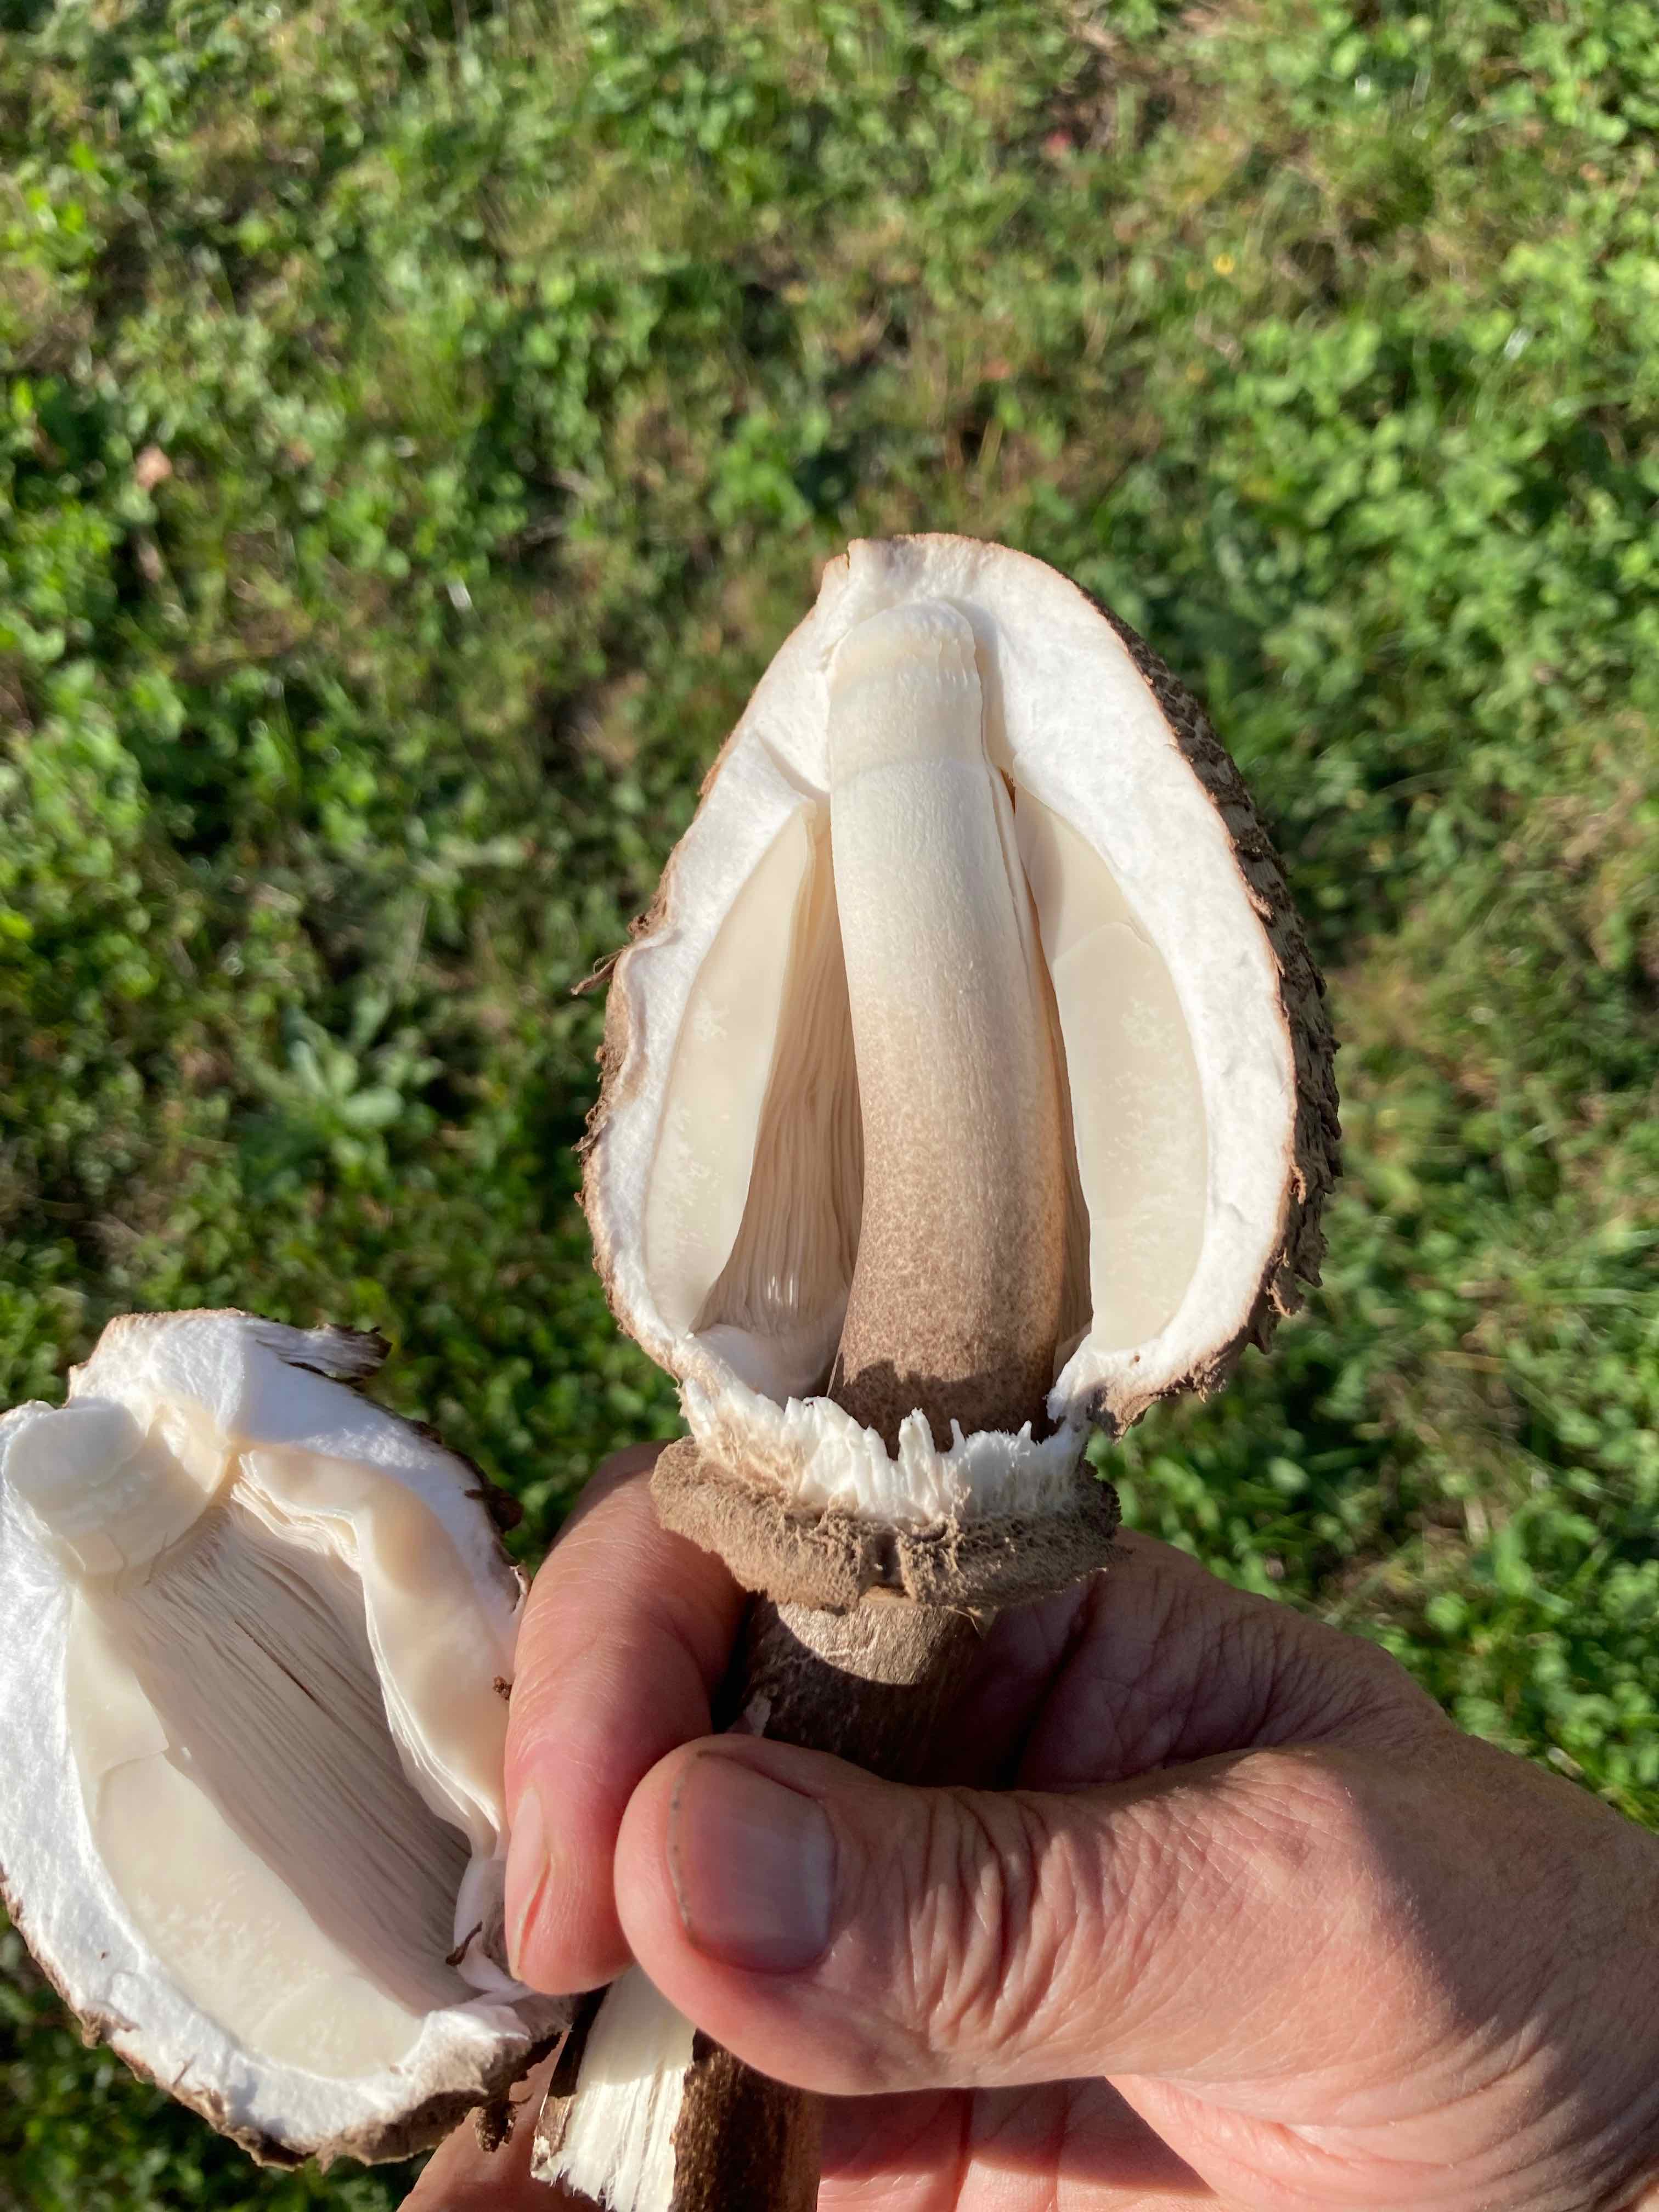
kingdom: Fungi
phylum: Basidiomycota
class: Agaricomycetes
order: Agaricales
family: Agaricaceae
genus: Macrolepiota
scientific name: Macrolepiota procera
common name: stor kæmpeparasolhat
